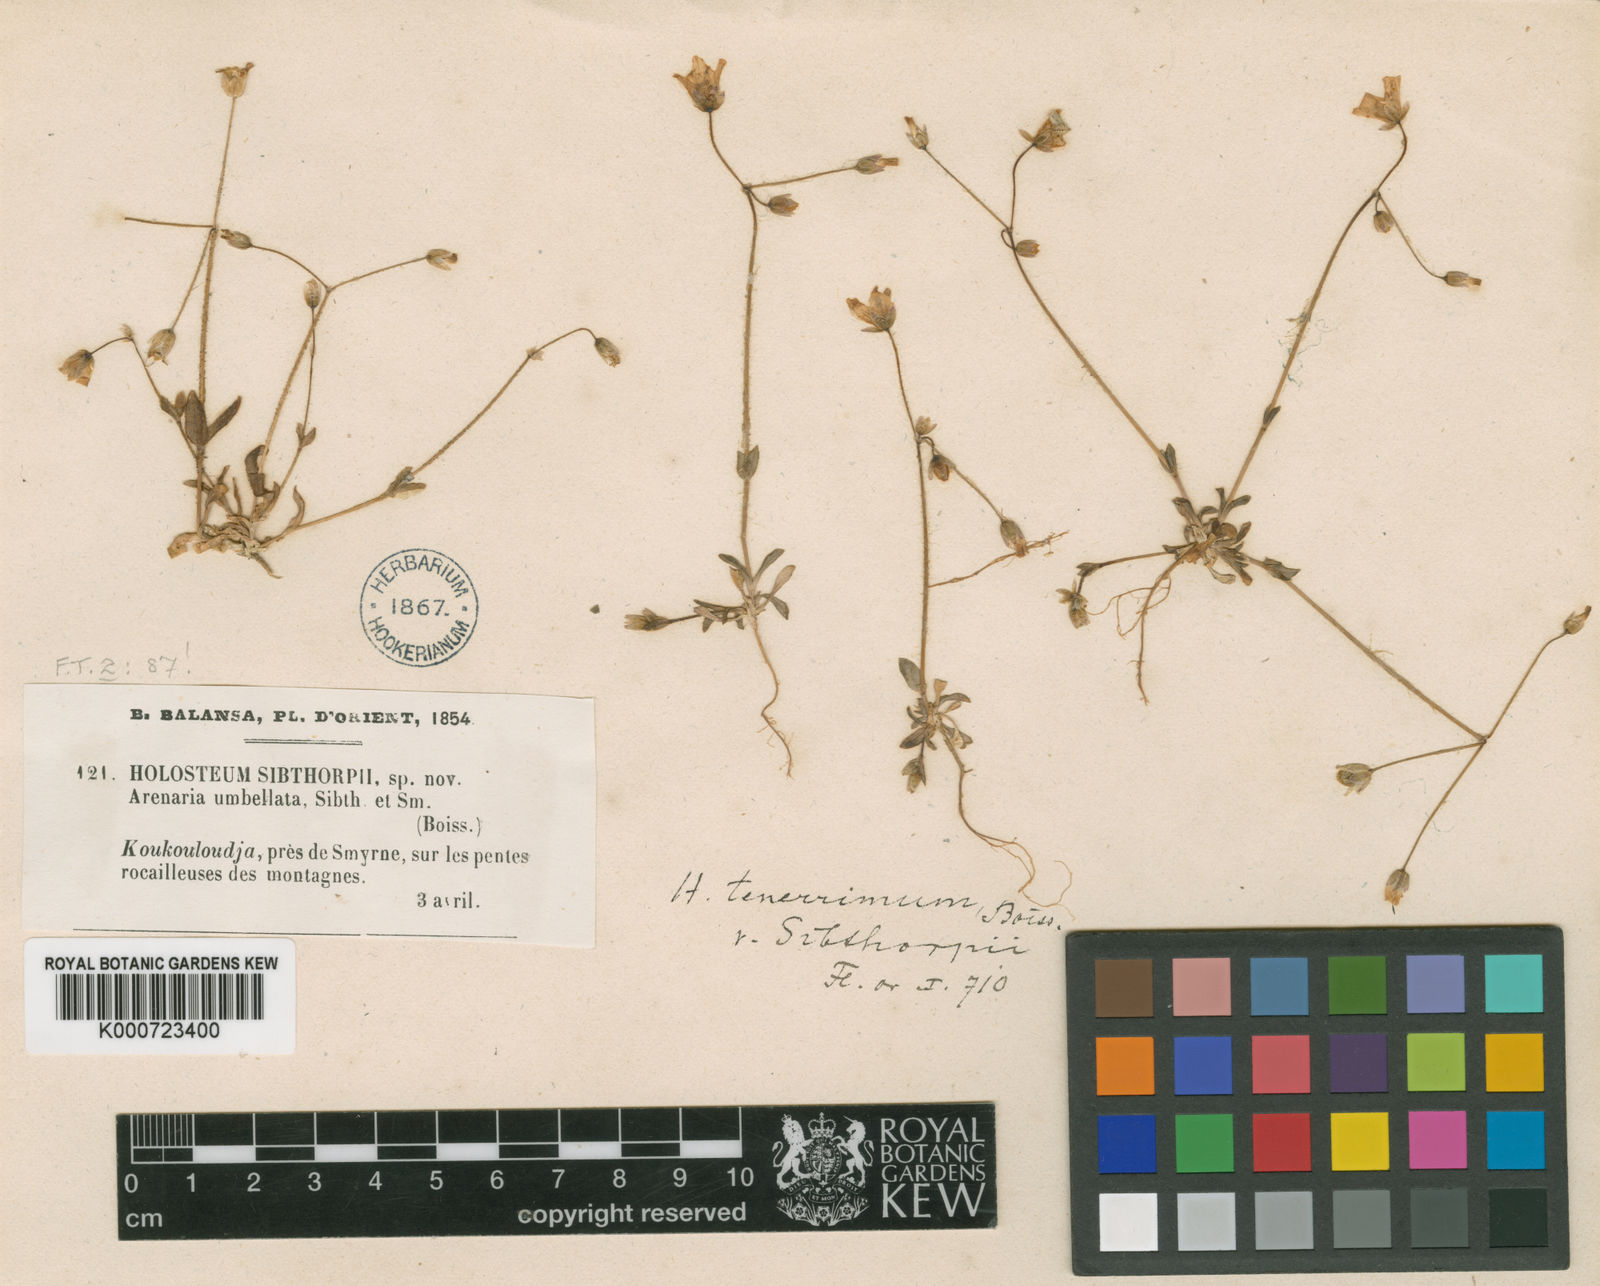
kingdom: Plantae
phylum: Tracheophyta
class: Magnoliopsida
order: Caryophyllales
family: Caryophyllaceae
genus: Holosteum
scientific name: Holosteum umbellatum
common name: Jagged chickweed
